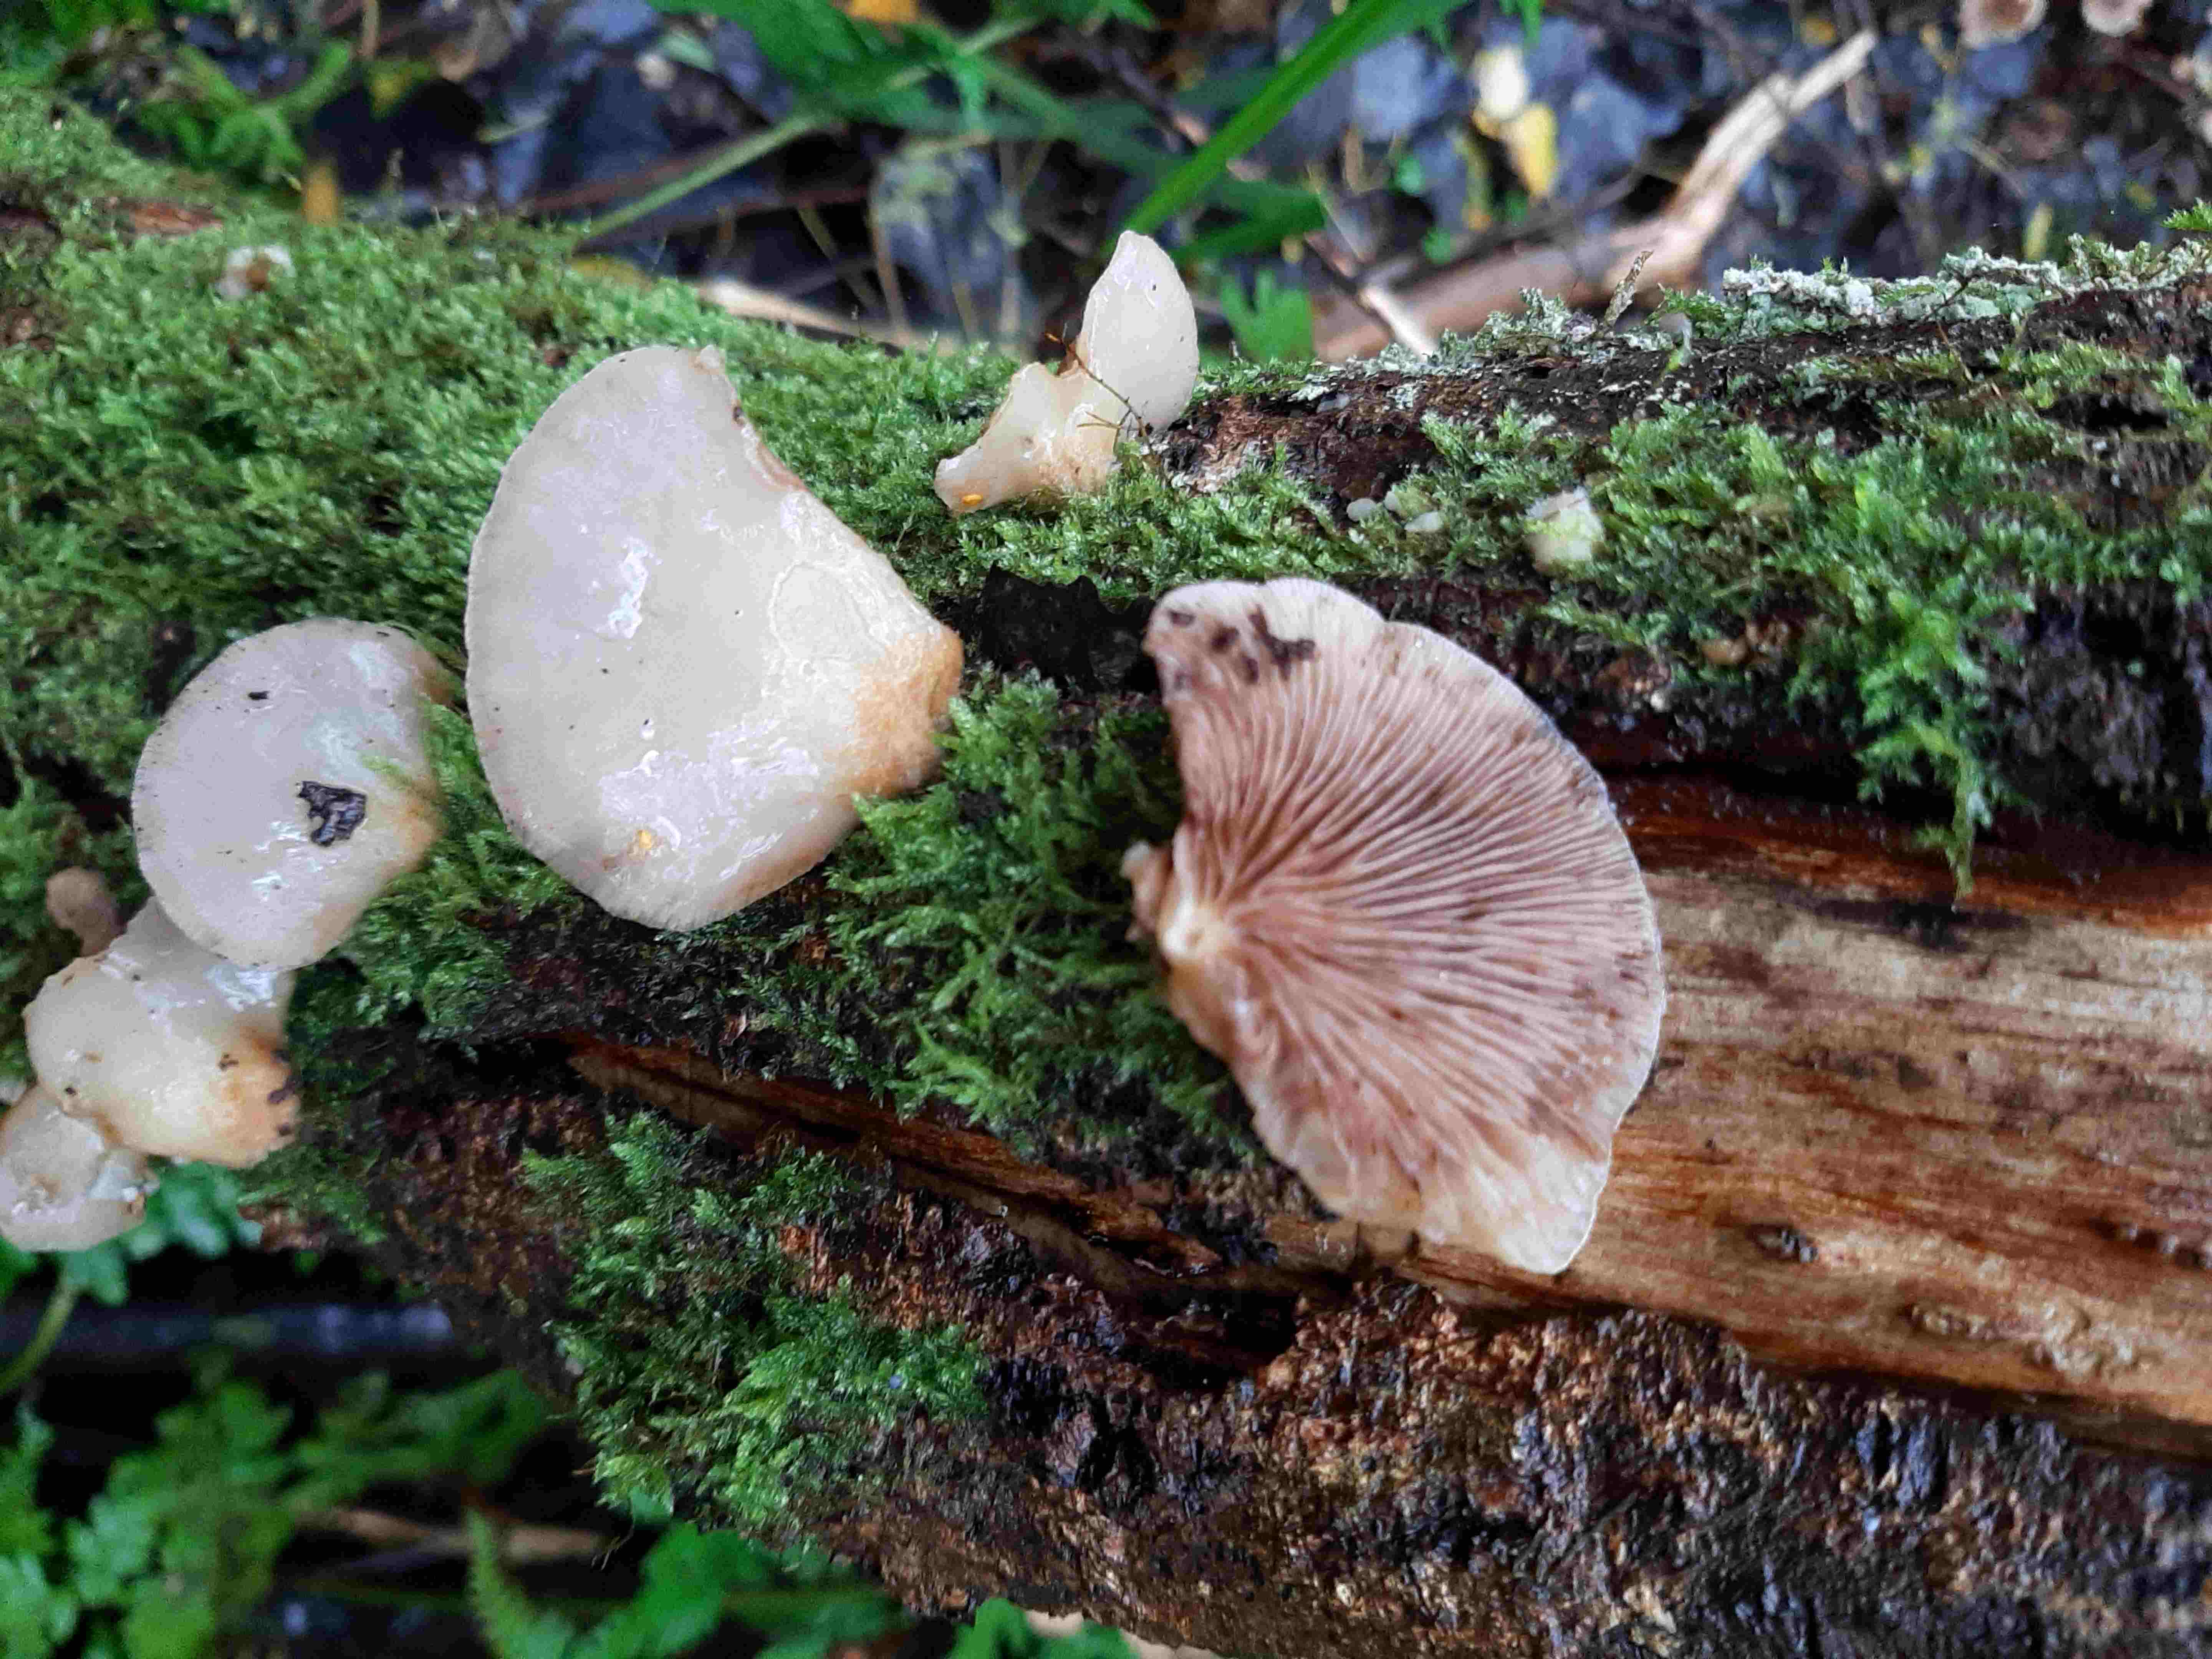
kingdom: Fungi
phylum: Basidiomycota
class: Agaricomycetes
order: Agaricales
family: Crepidotaceae
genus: Crepidotus
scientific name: Crepidotus mollis
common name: blød muslingesvamp
